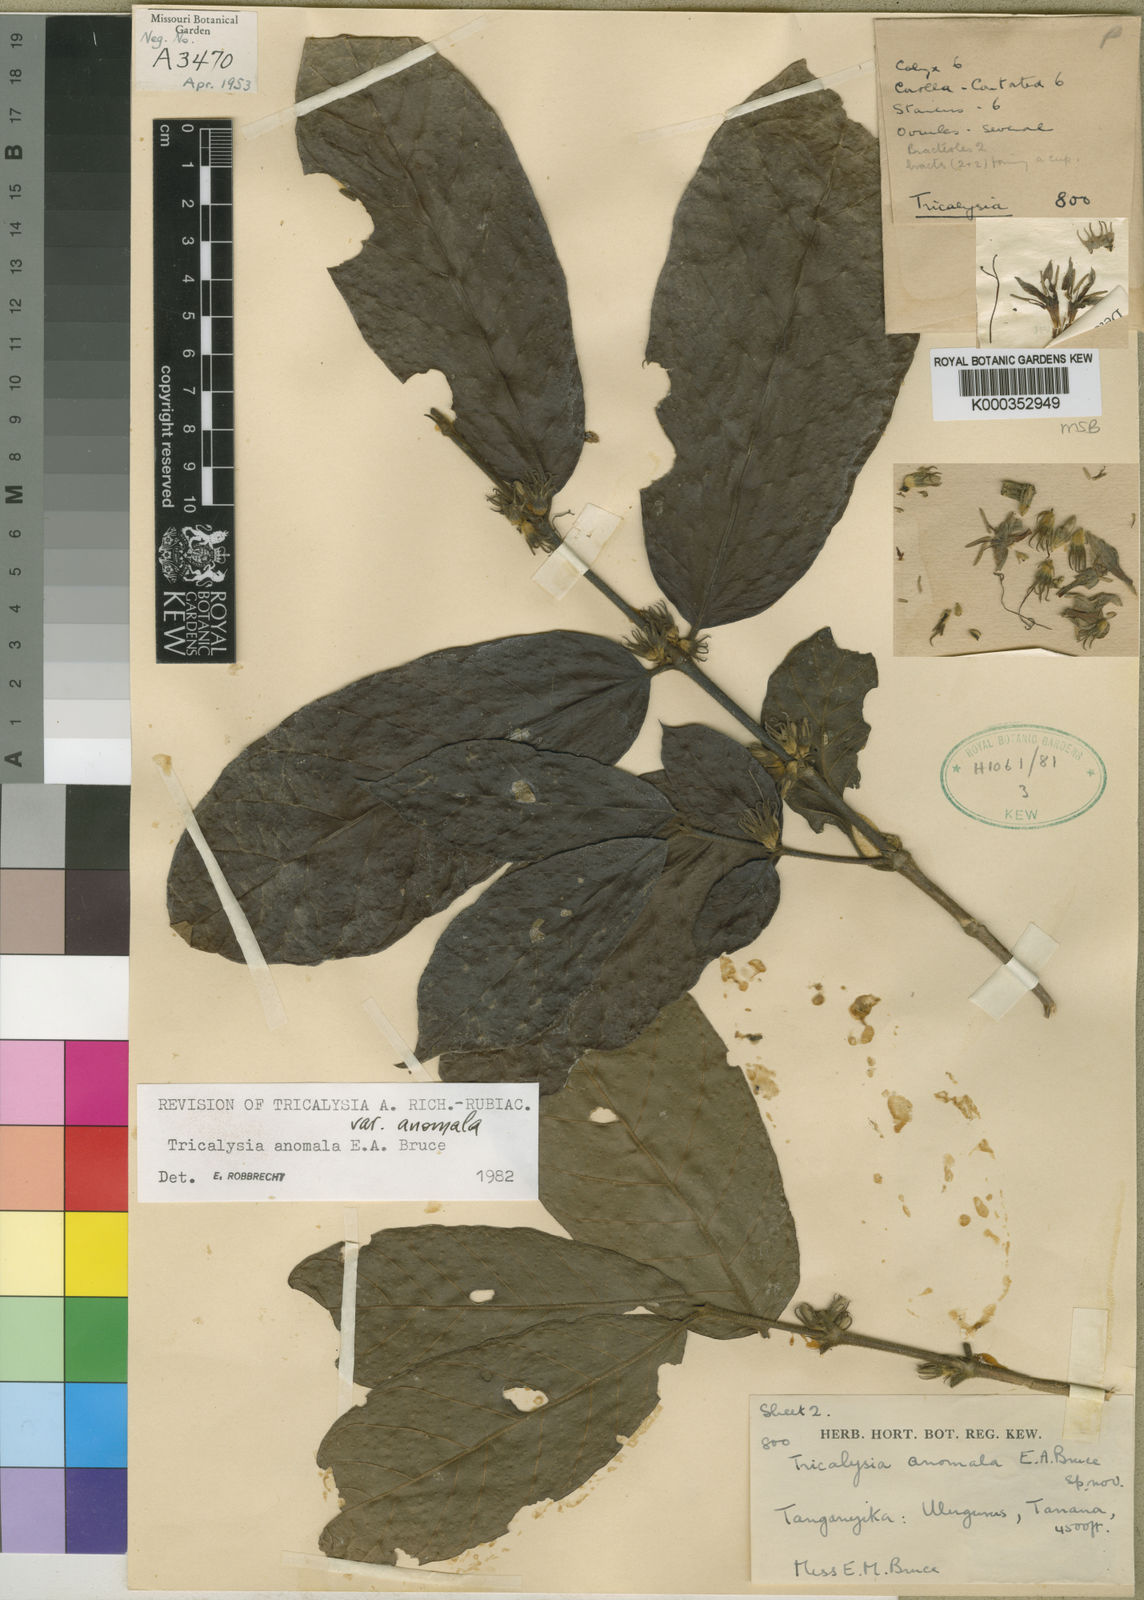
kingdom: Plantae
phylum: Tracheophyta
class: Magnoliopsida
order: Gentianales
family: Rubiaceae
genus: Tricalysia
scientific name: Tricalysia anomala
